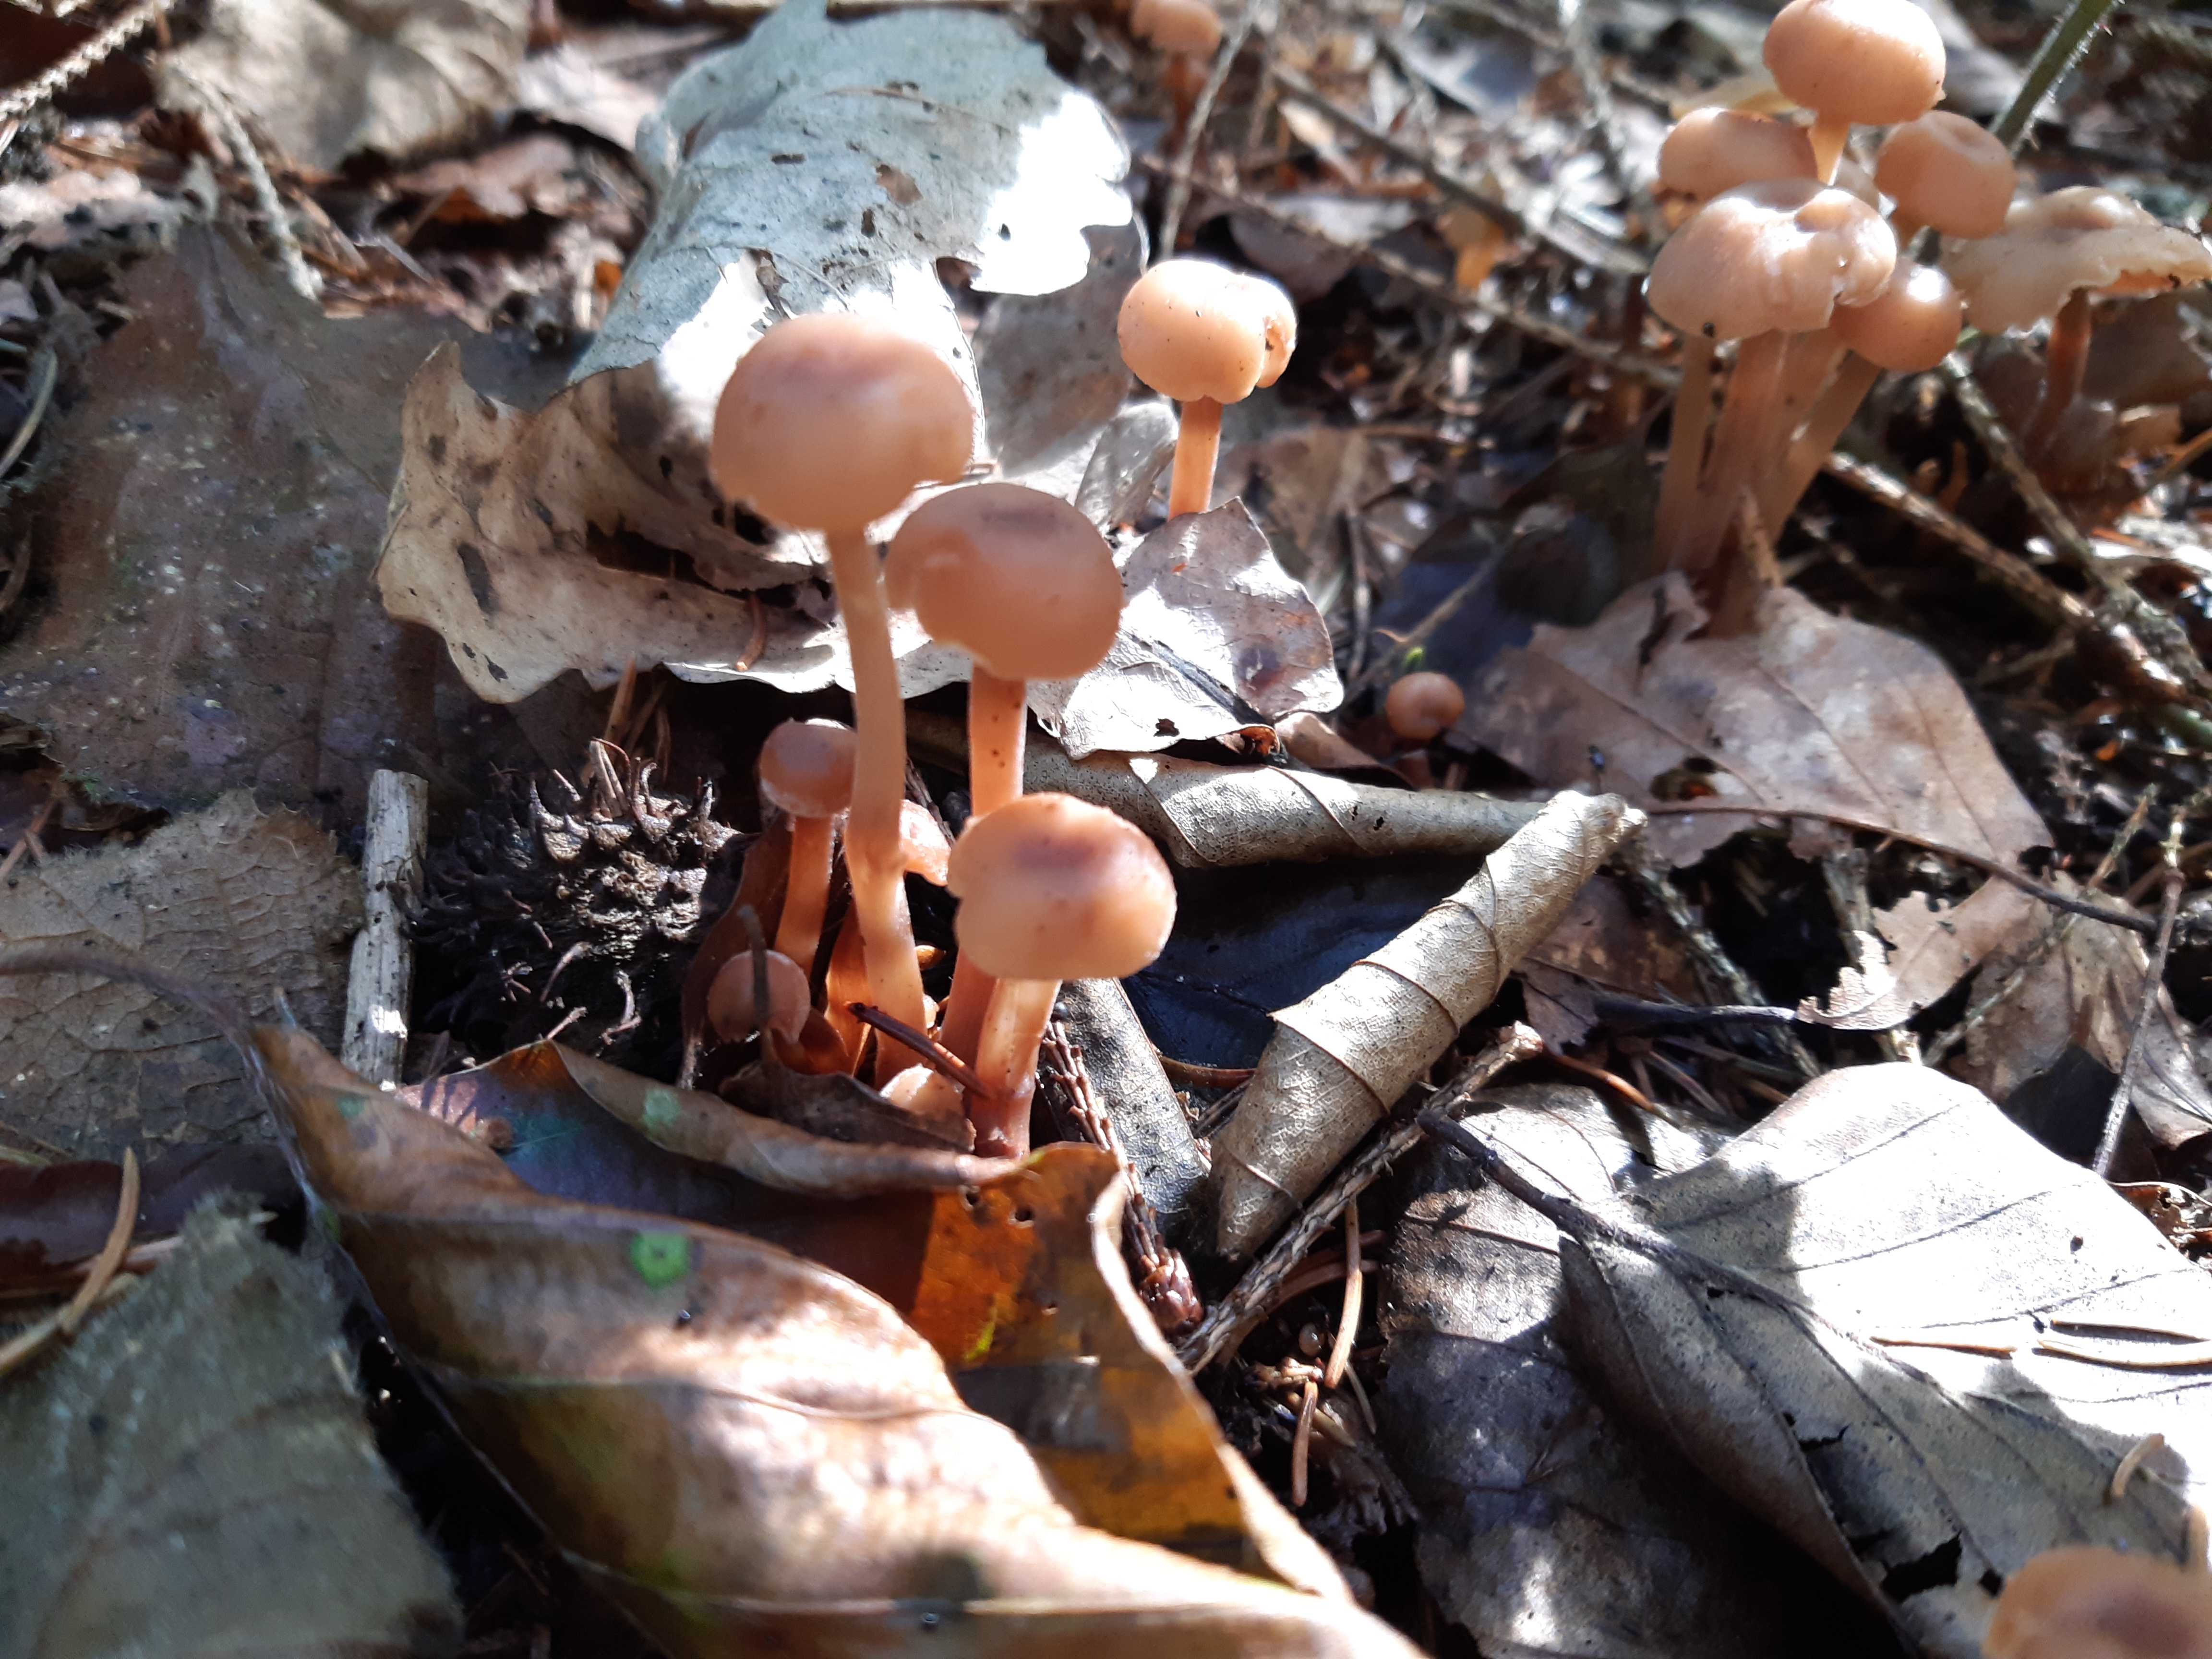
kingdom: Fungi
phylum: Basidiomycota
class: Agaricomycetes
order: Agaricales
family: Omphalotaceae
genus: Collybiopsis
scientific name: Collybiopsis confluens
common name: knippe-fladhat
